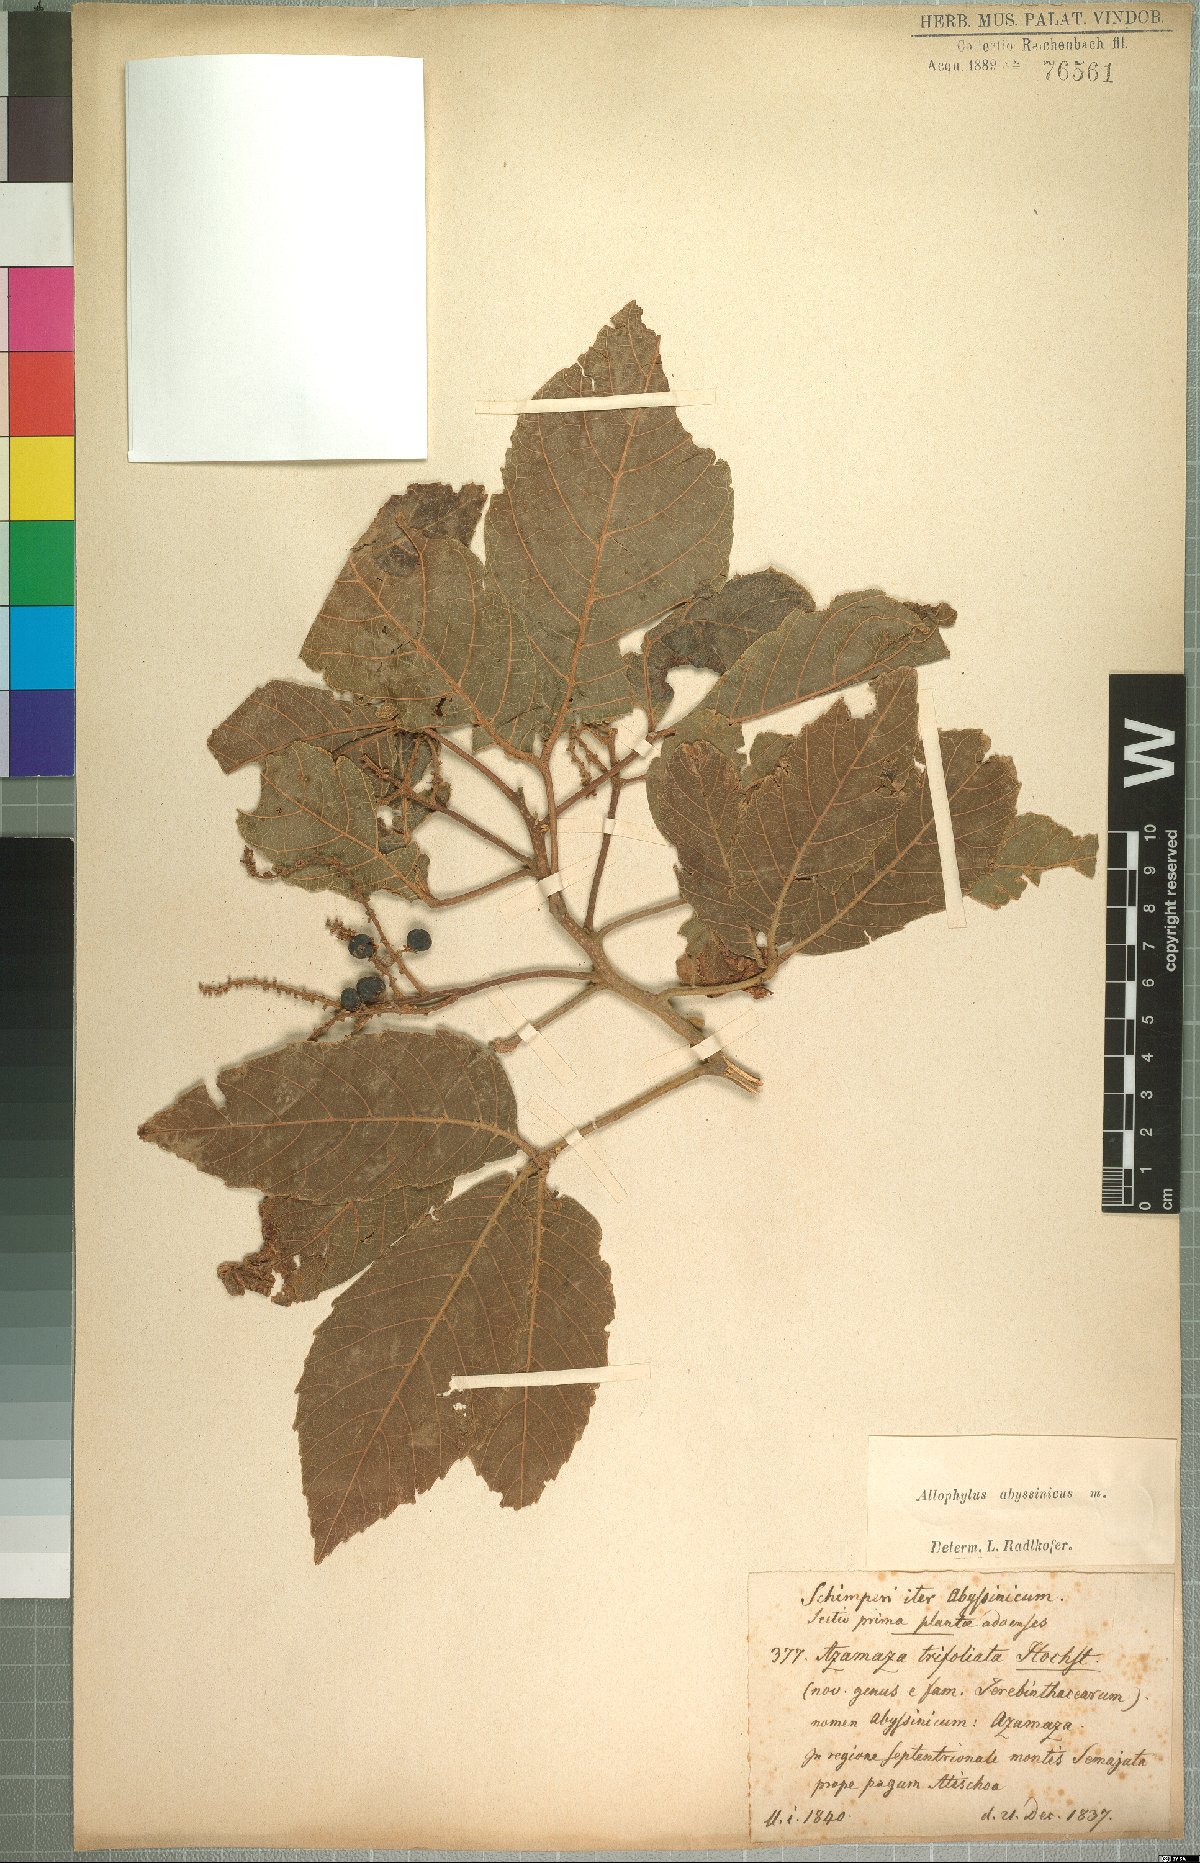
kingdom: Plantae
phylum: Tracheophyta
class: Magnoliopsida
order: Sapindales
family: Sapindaceae
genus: Allophylus
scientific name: Allophylus abyssinicus
